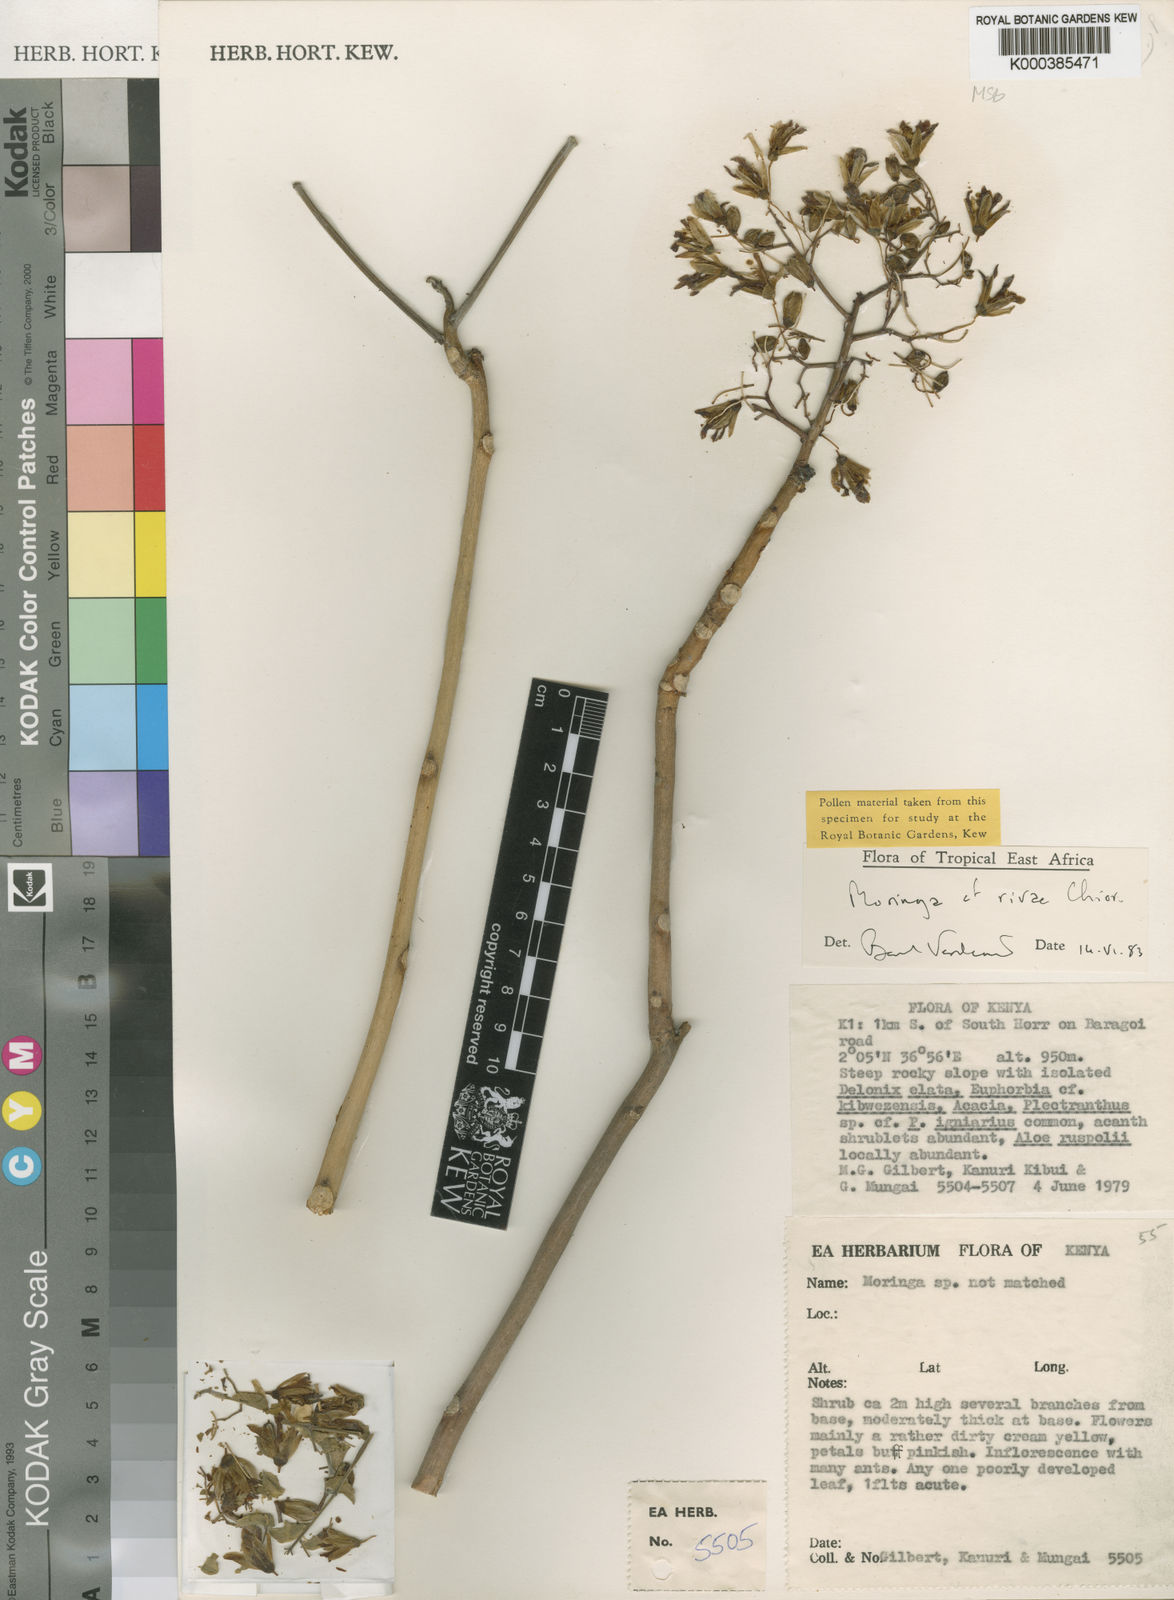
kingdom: Plantae
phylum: Tracheophyta
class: Magnoliopsida
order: Brassicales
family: Moringaceae
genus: Moringa
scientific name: Moringa rivae
